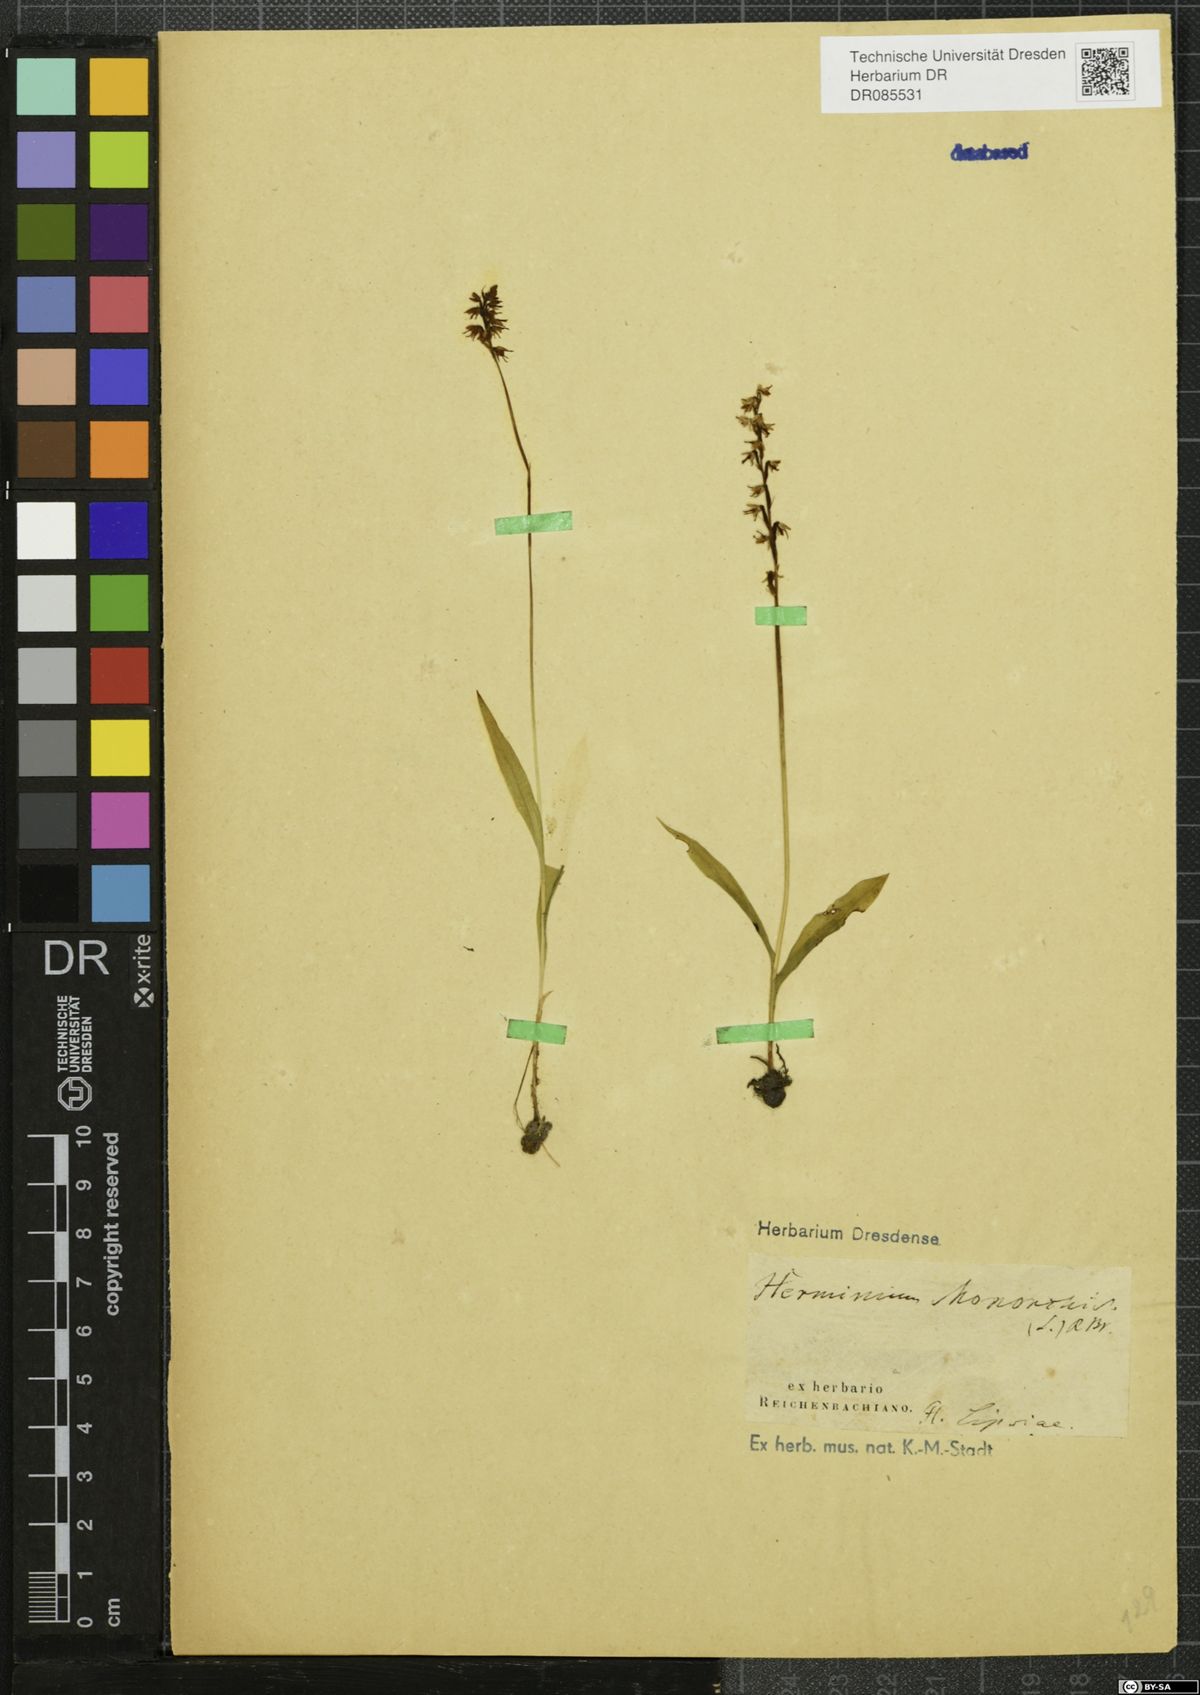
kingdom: Plantae
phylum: Tracheophyta
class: Liliopsida
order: Asparagales
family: Orchidaceae
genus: Herminium
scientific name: Herminium monorchis
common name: Musk orchid
